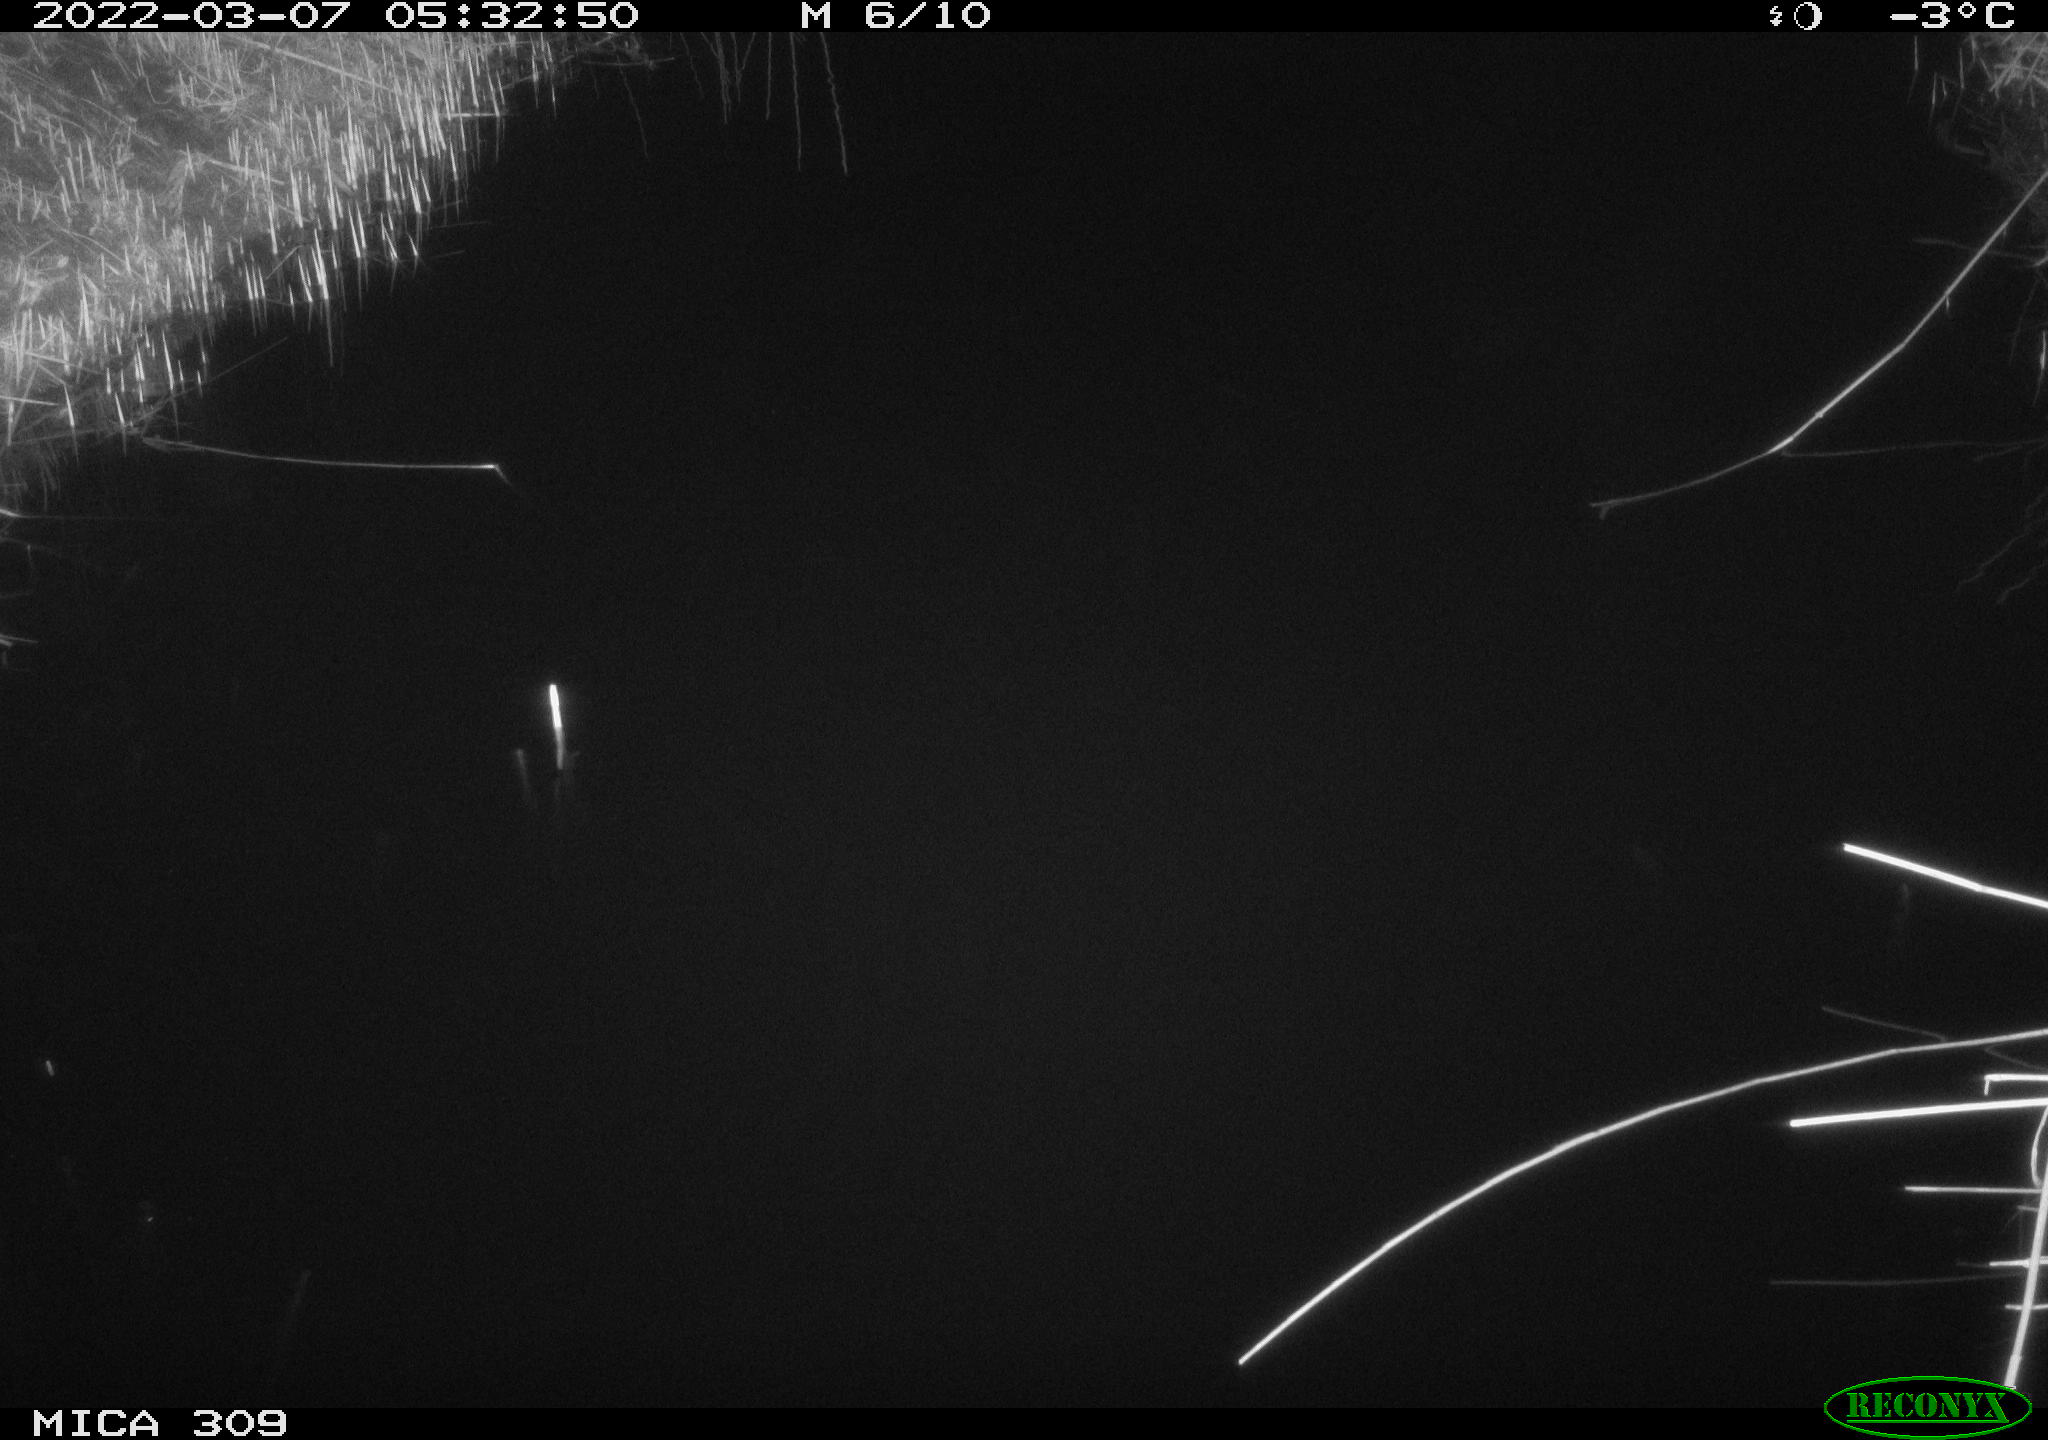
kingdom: Animalia
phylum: Chordata
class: Aves
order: Anseriformes
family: Anatidae
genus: Anas
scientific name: Anas platyrhynchos
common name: Mallard
